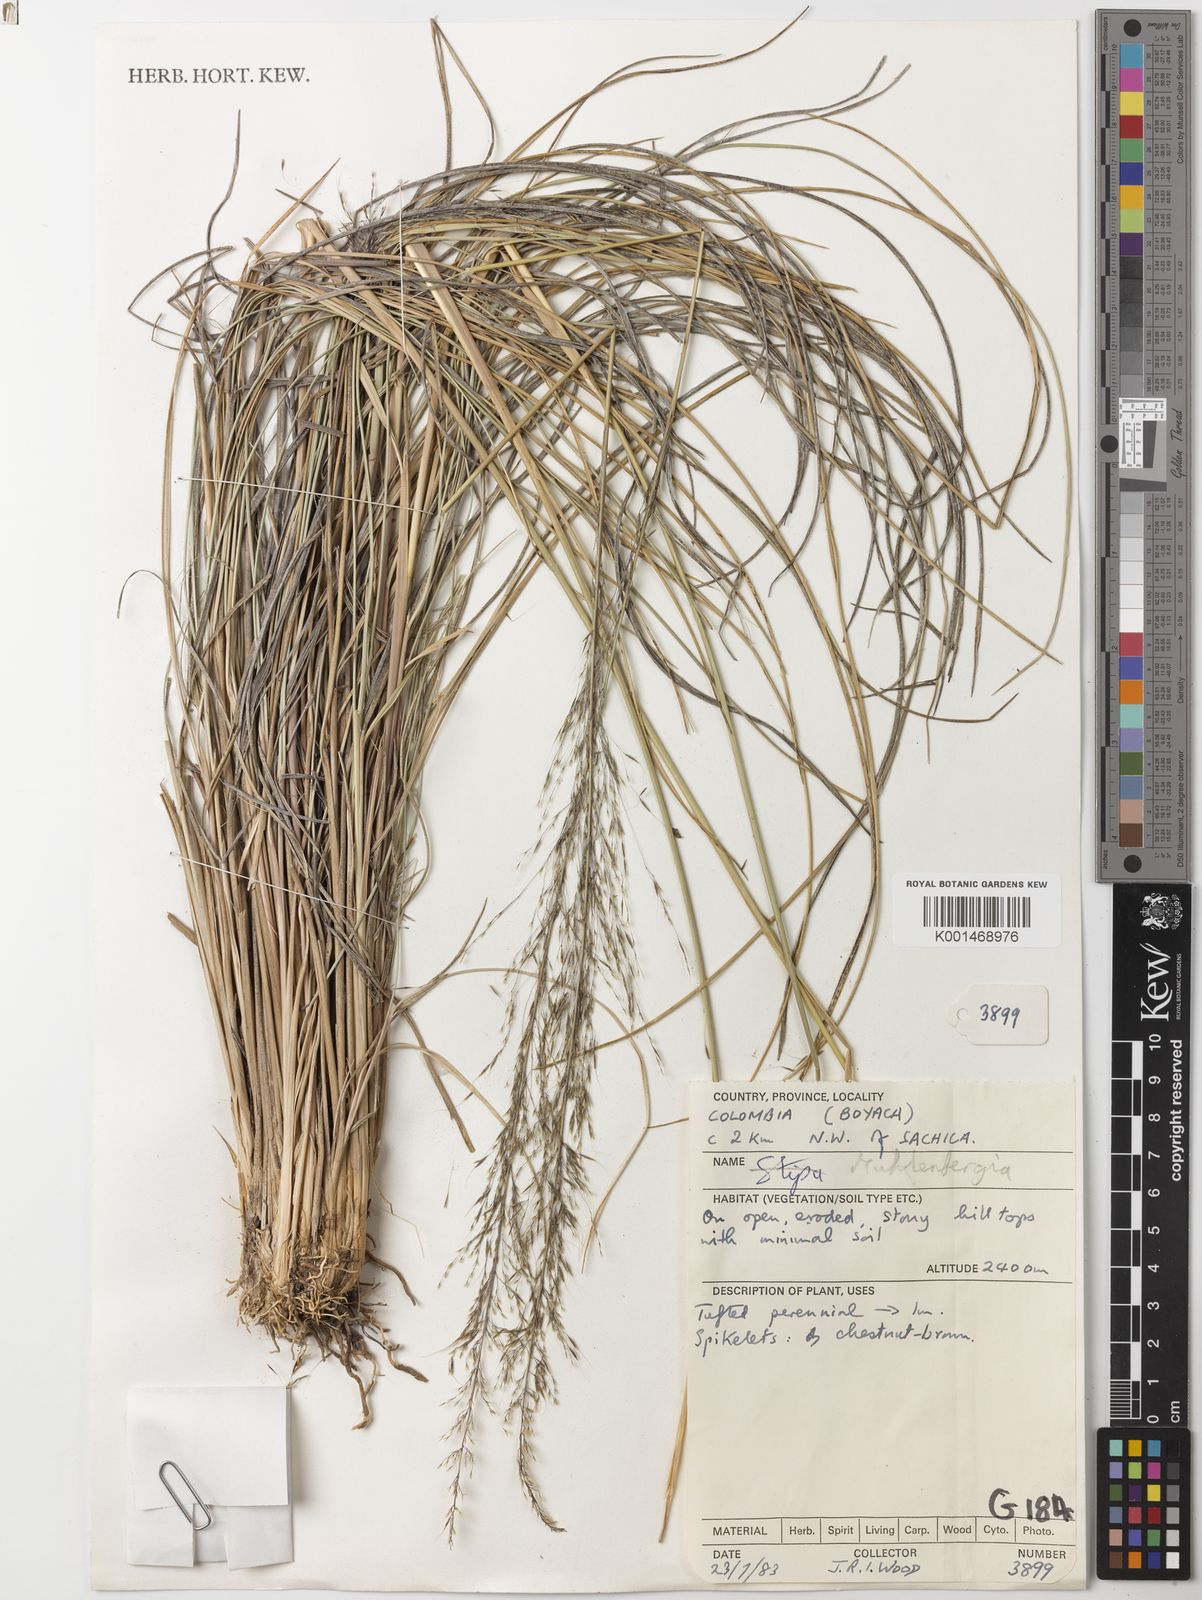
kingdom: Plantae
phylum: Tracheophyta
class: Liliopsida
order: Poales
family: Poaceae
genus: Muhlenbergia
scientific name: Muhlenbergia rigida
